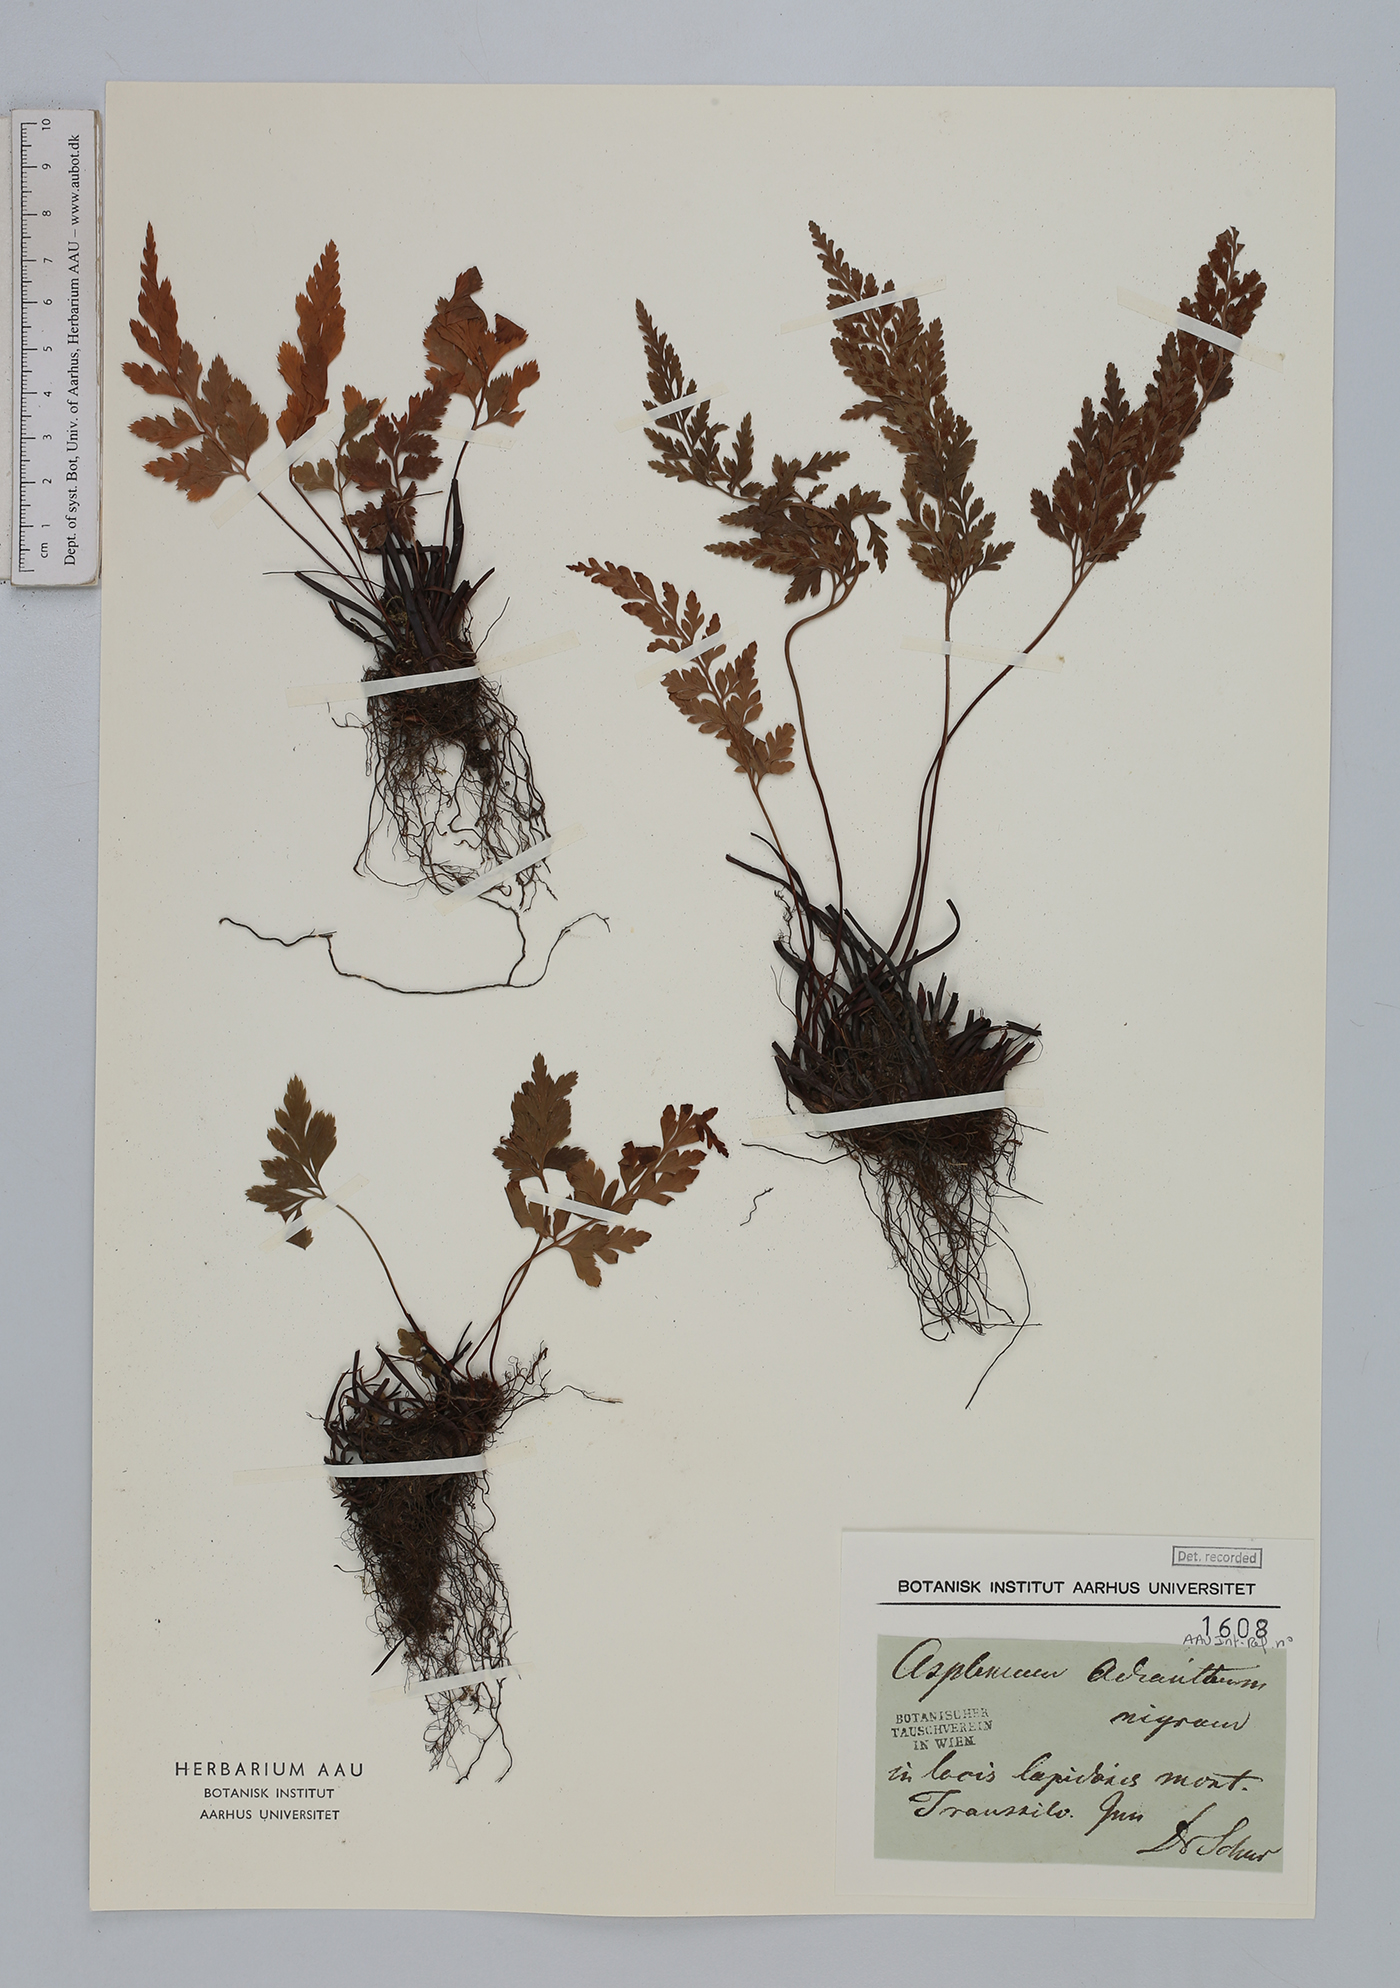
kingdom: Plantae
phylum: Tracheophyta
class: Polypodiopsida
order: Polypodiales
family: Aspleniaceae
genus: Asplenium
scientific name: Asplenium adiantum-nigrum
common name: Black spleenwort
